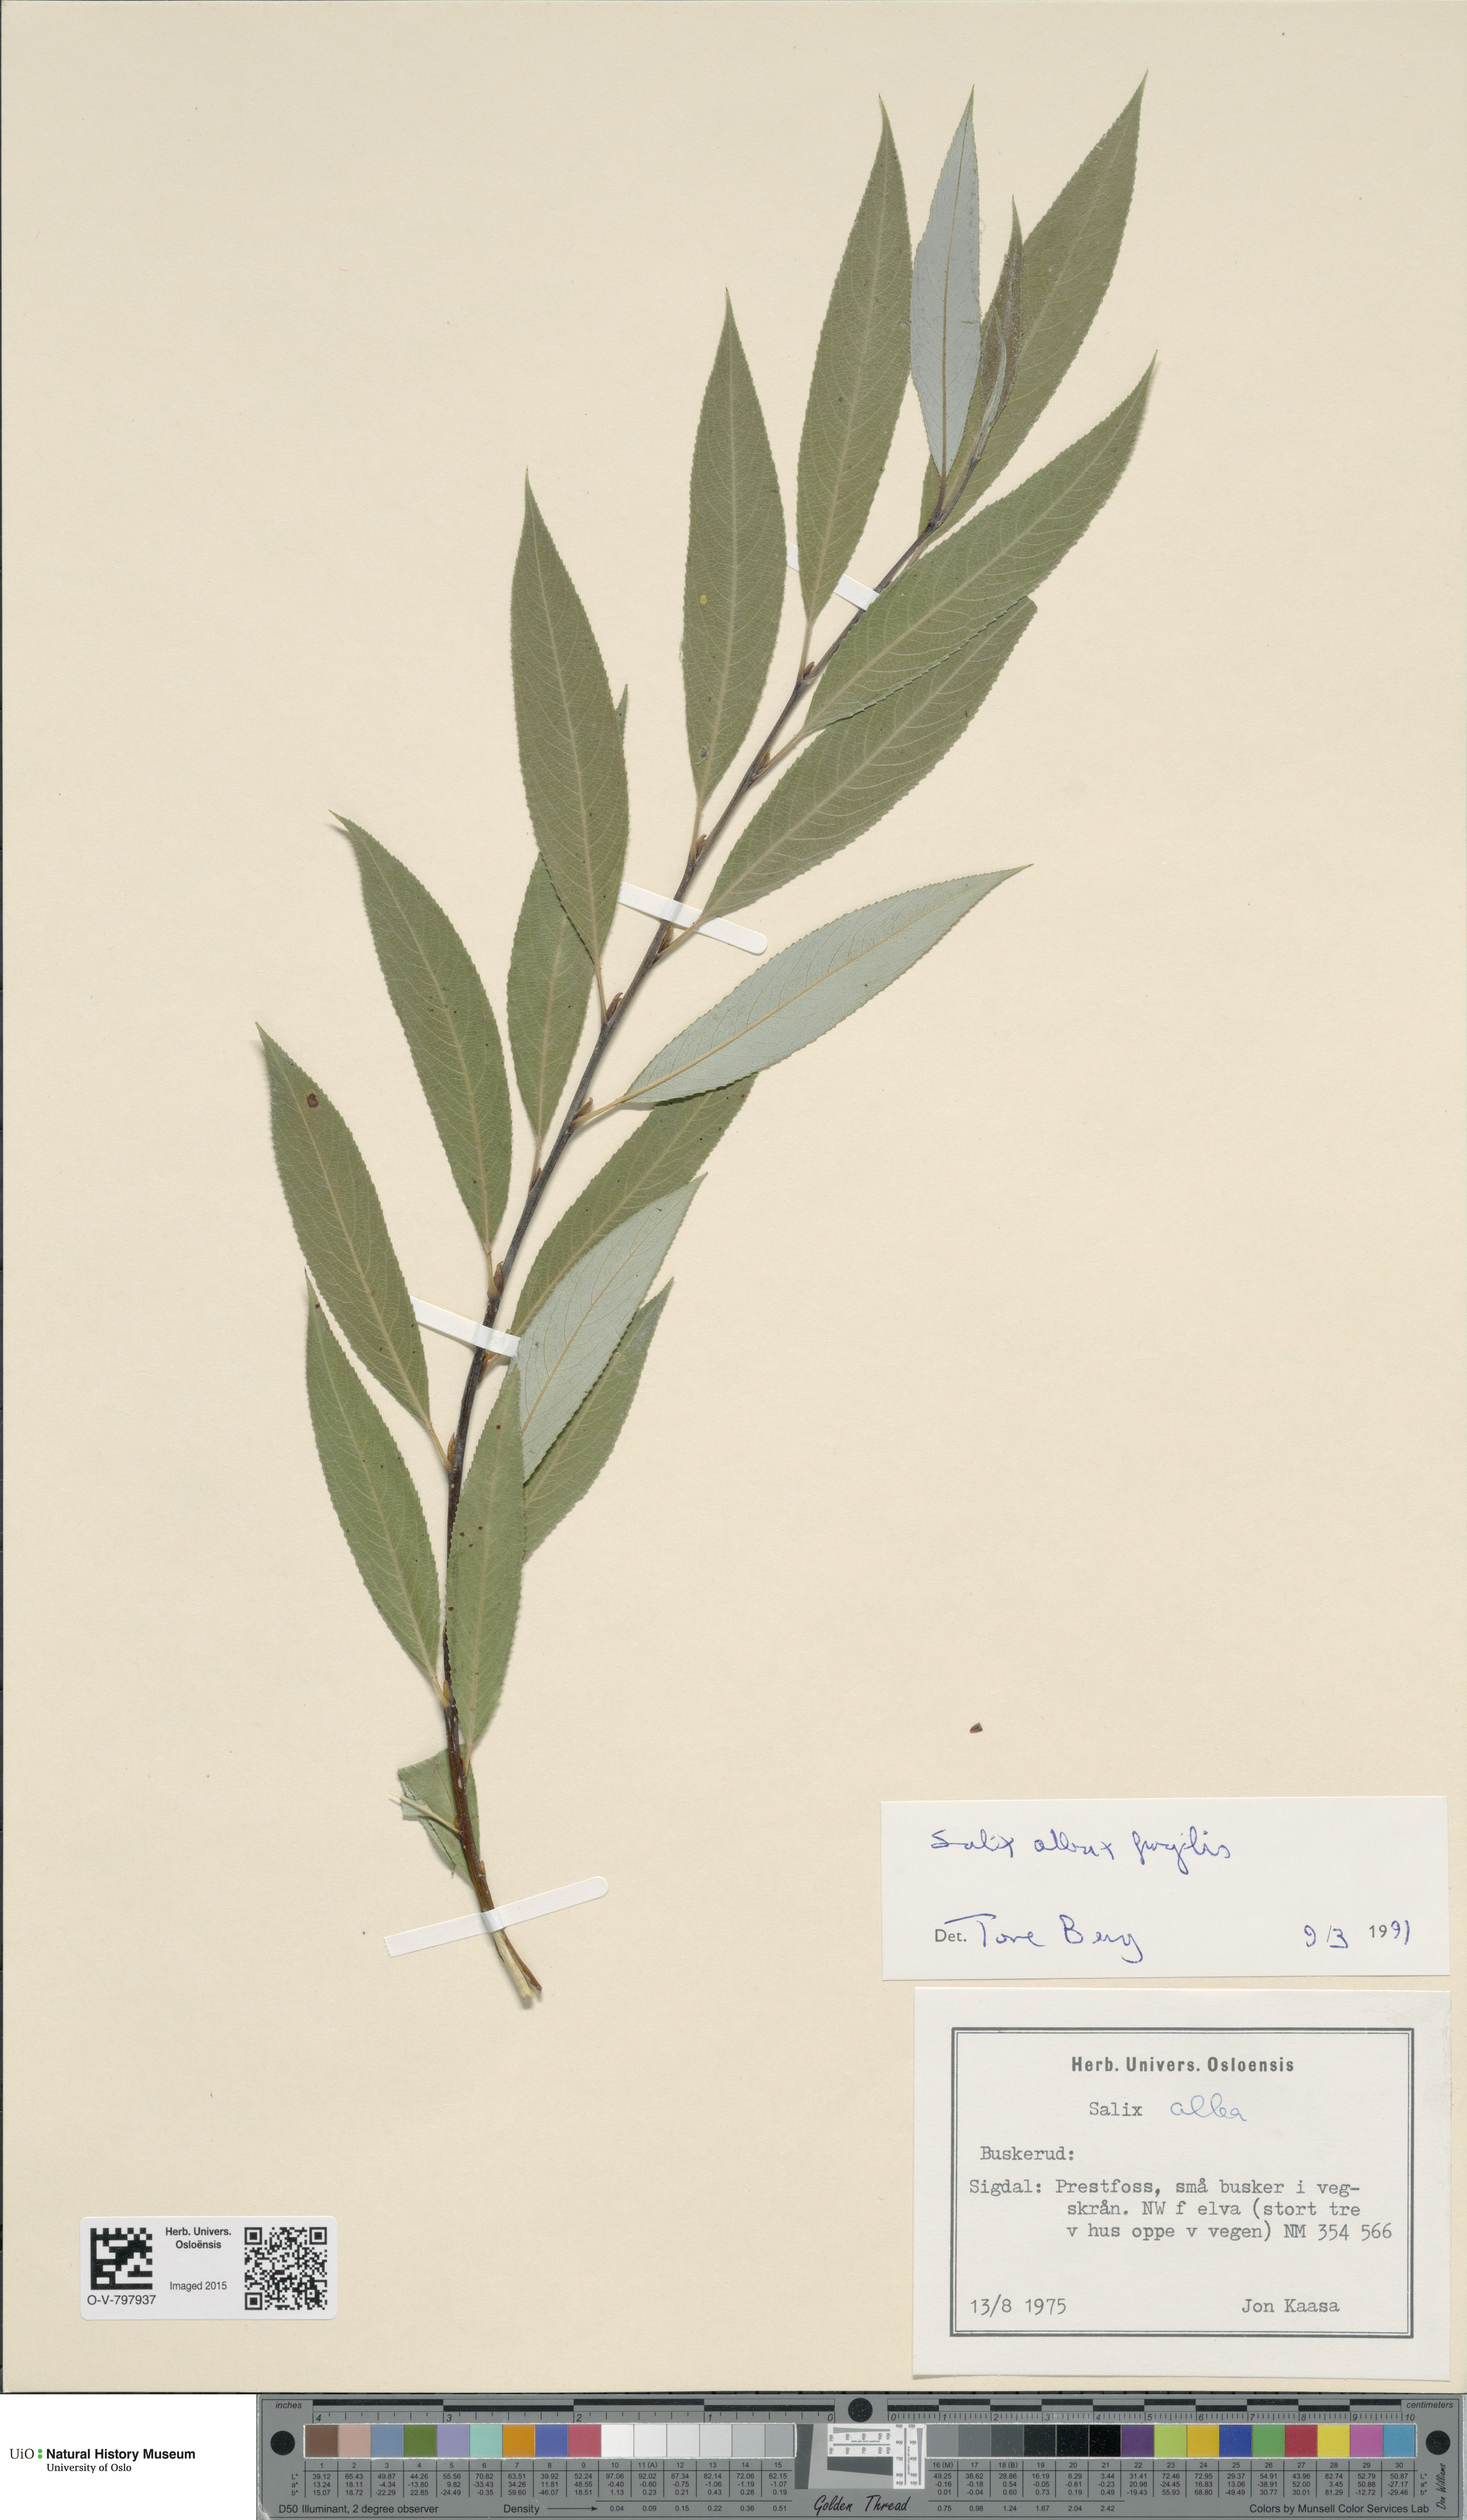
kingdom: Plantae
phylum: Tracheophyta
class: Magnoliopsida
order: Malpighiales
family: Salicaceae
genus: Salix
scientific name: Salix
